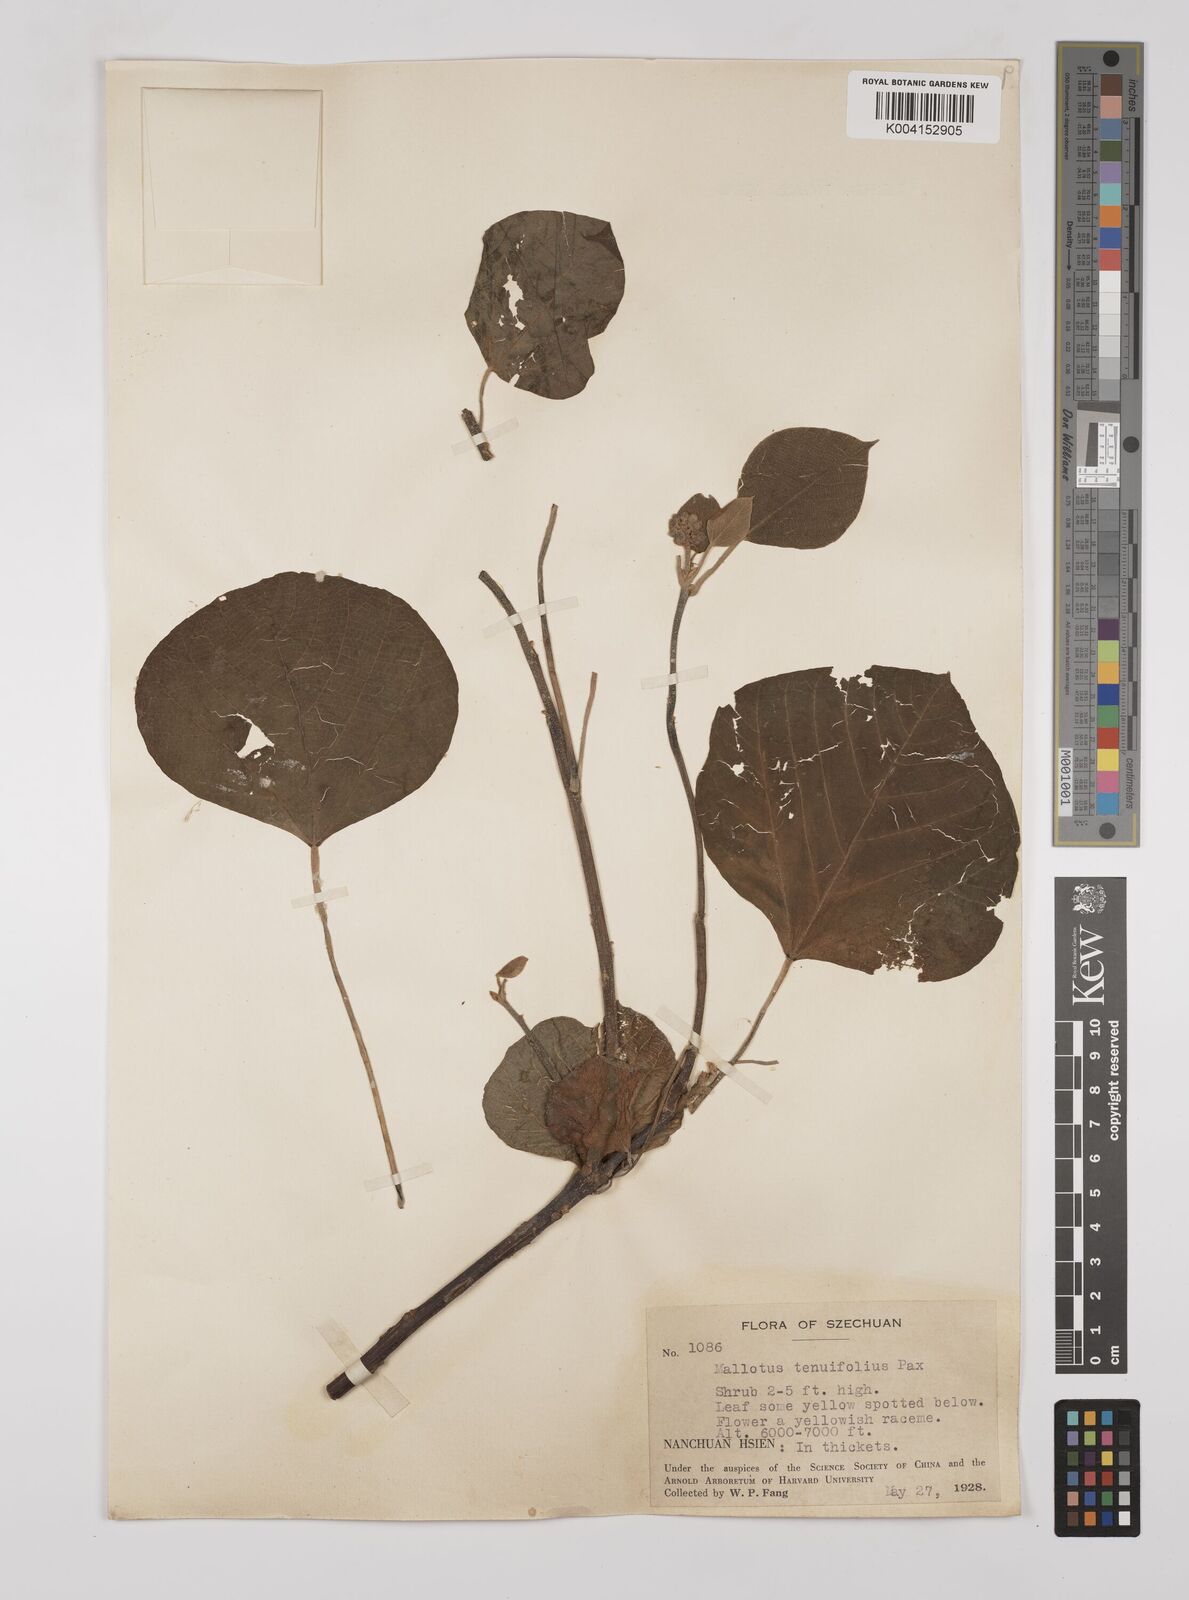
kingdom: Plantae
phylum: Tracheophyta
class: Magnoliopsida
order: Malpighiales
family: Euphorbiaceae
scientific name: Euphorbiaceae
